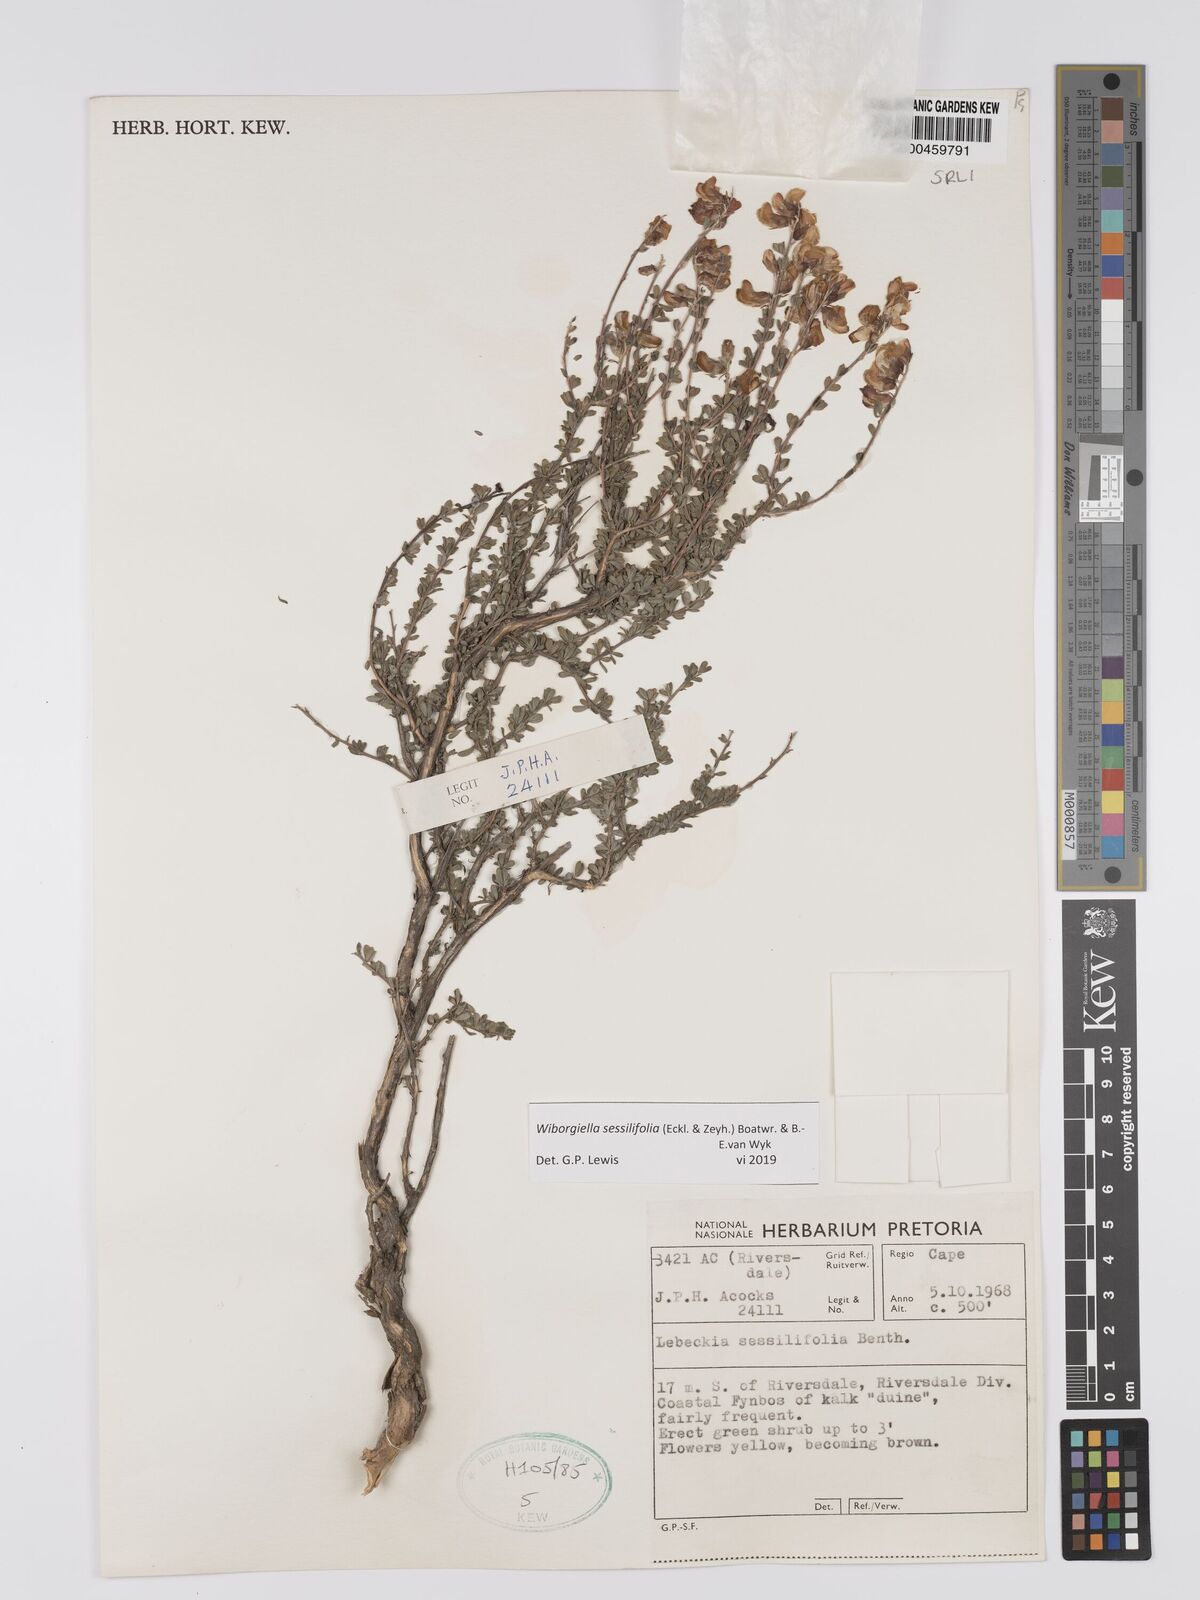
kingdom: Plantae
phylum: Tracheophyta
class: Magnoliopsida
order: Fabales
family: Fabaceae
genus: Wiborgiella
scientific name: Wiborgiella sessilifolia
